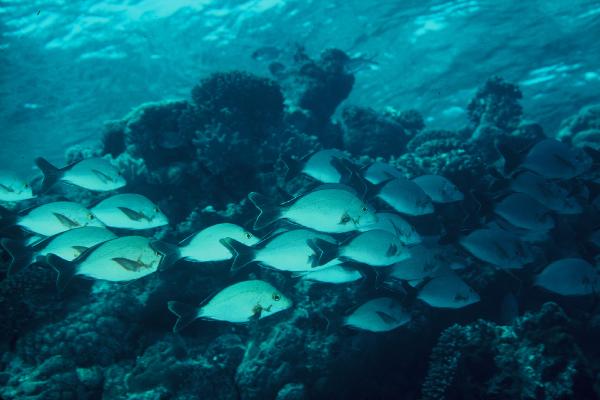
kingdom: Animalia
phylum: Chordata
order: Perciformes
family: Lutjanidae
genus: Lutjanus
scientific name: Lutjanus gibbus
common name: Humpback snapper
